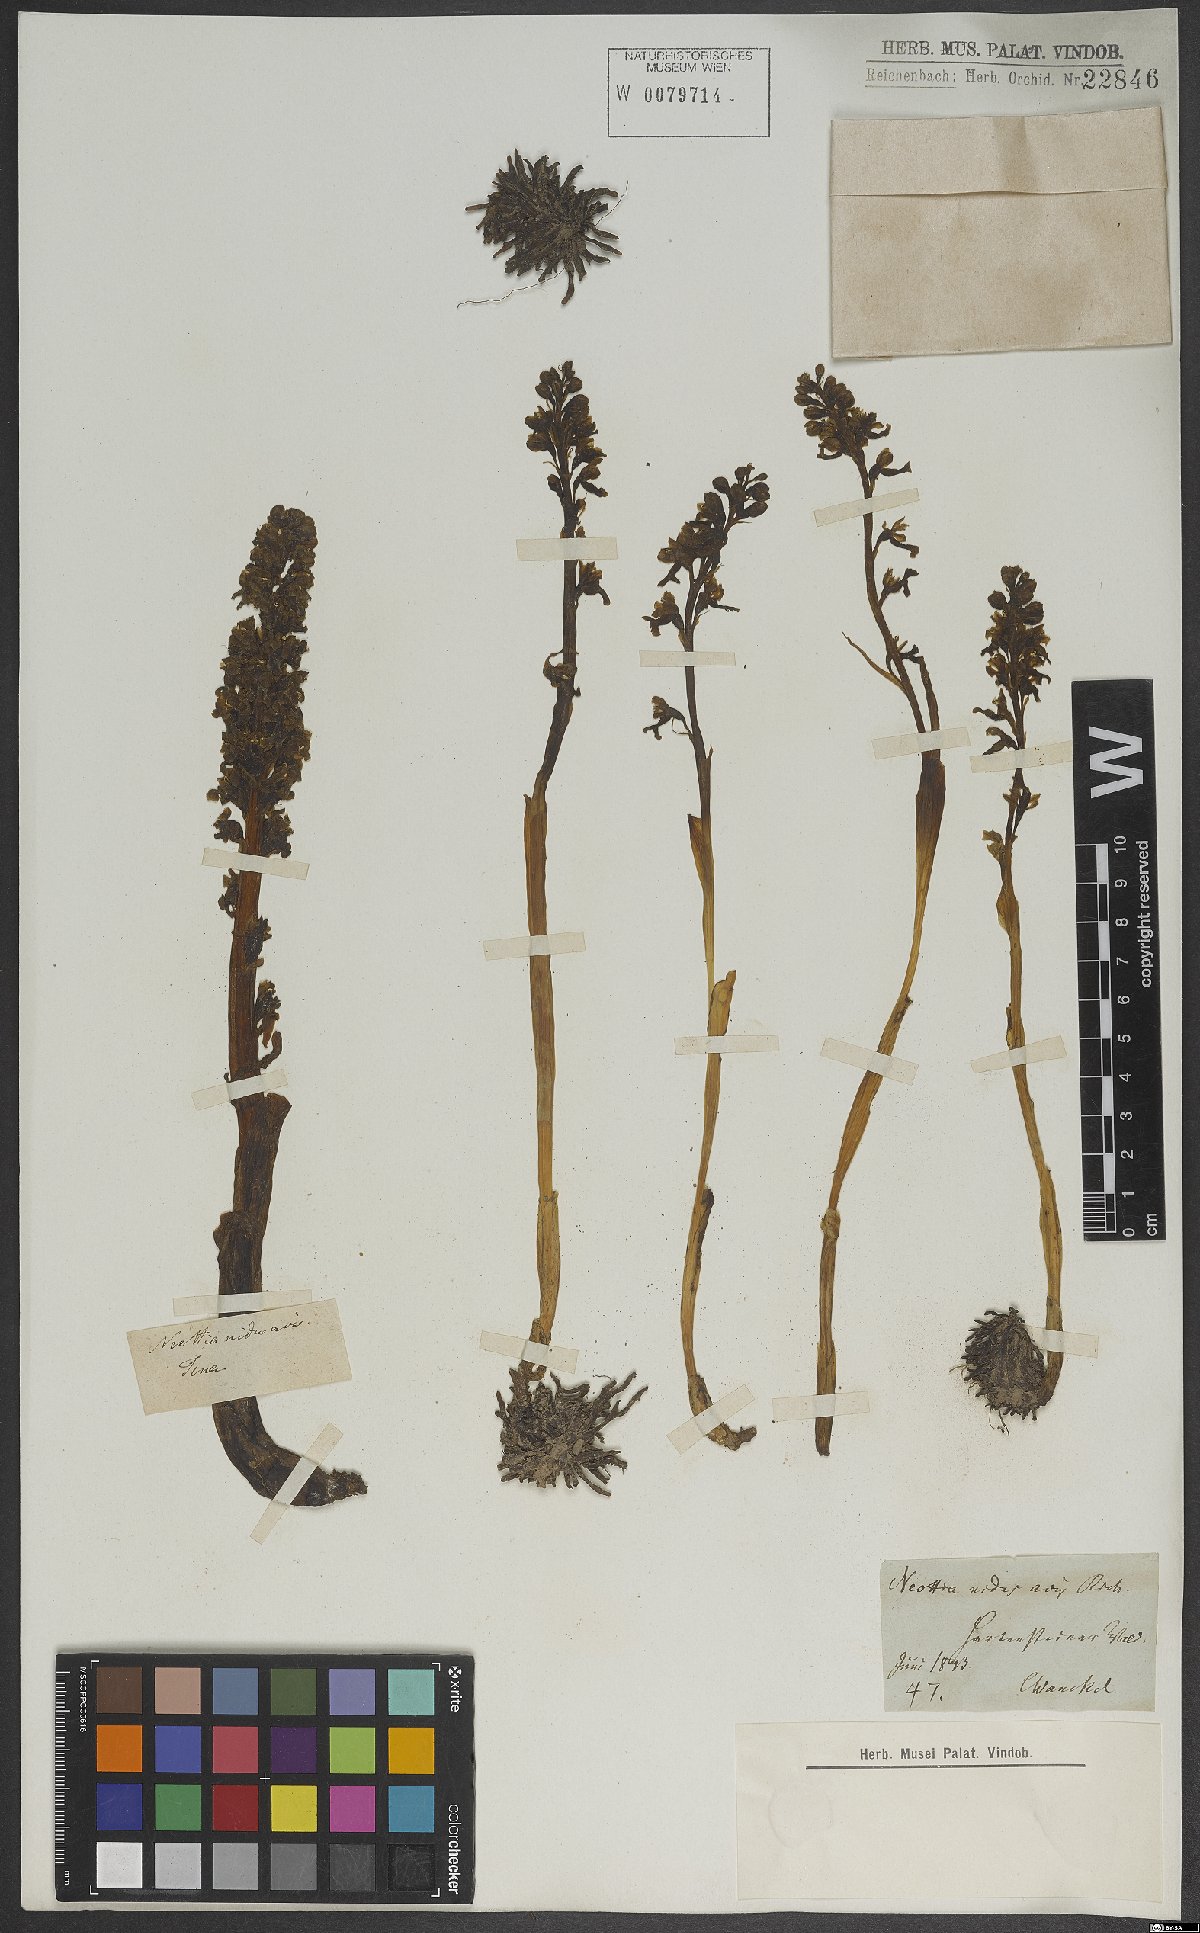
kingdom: Plantae
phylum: Tracheophyta
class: Liliopsida
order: Asparagales
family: Orchidaceae
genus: Neottia
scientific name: Neottia nidus-avis
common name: Bird's-nest orchid
